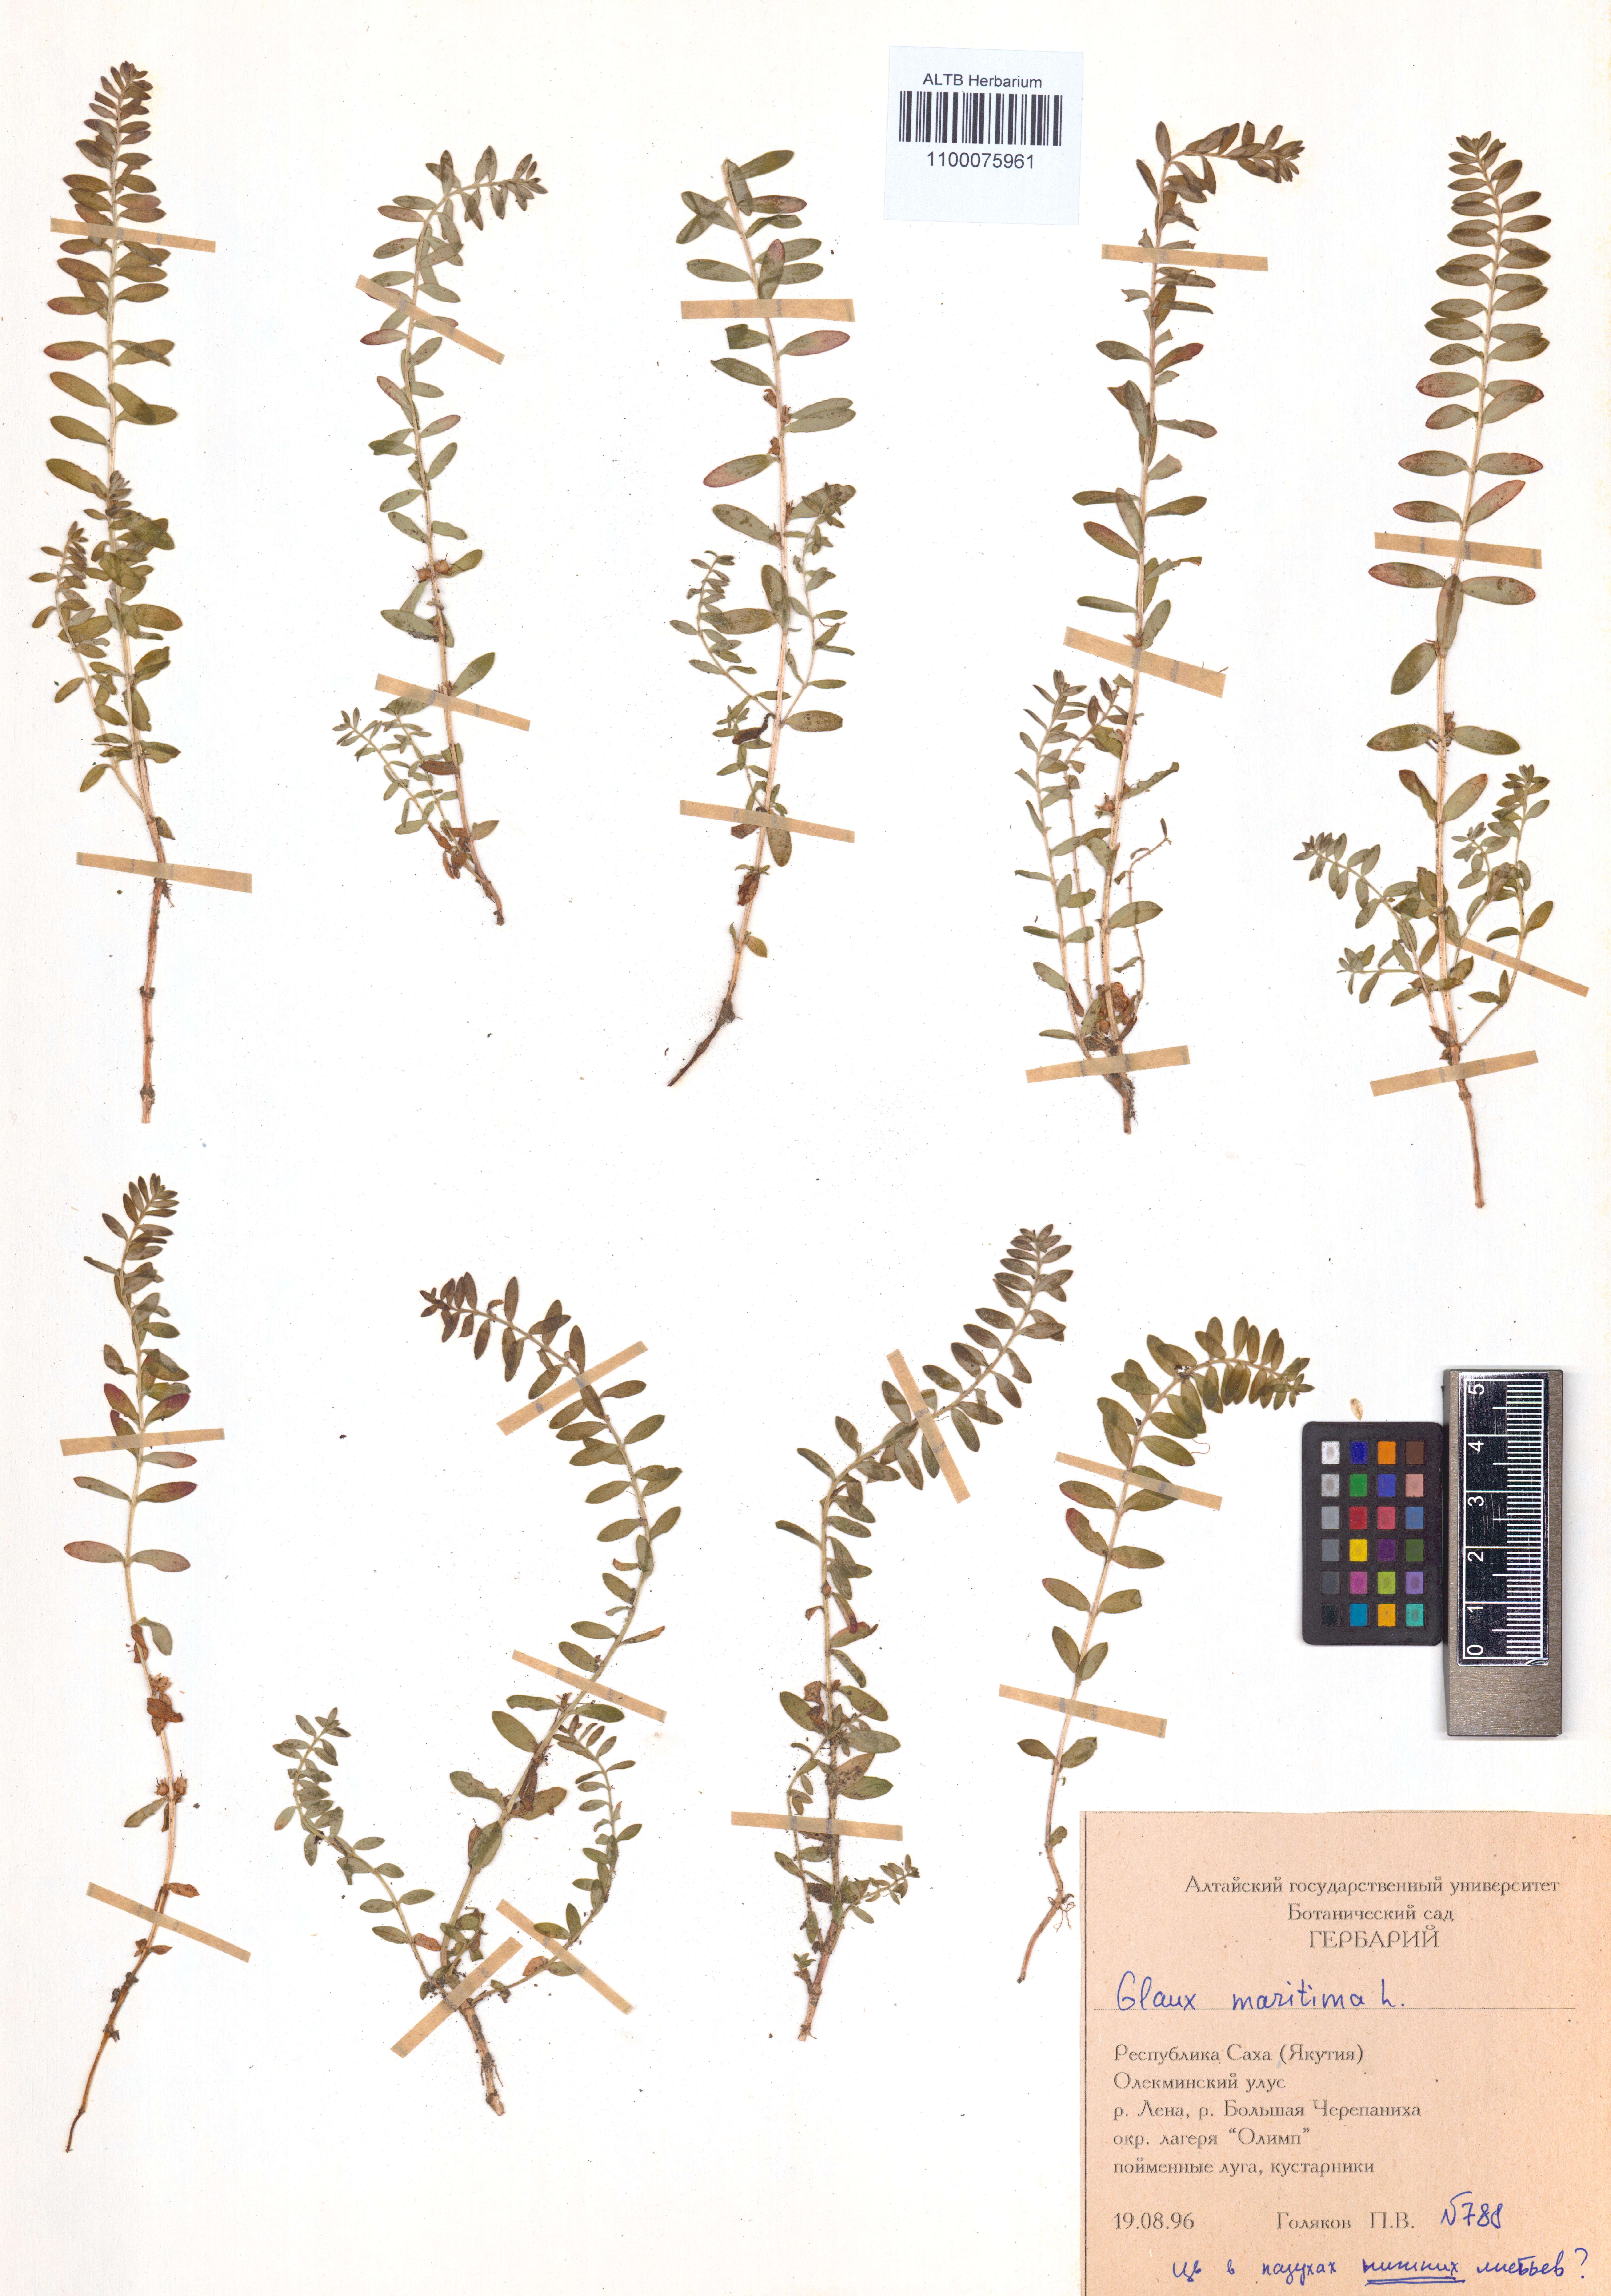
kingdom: Plantae
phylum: Tracheophyta
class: Magnoliopsida
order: Ericales
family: Primulaceae
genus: Lysimachia
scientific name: Lysimachia maritima
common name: Sea milkwort
